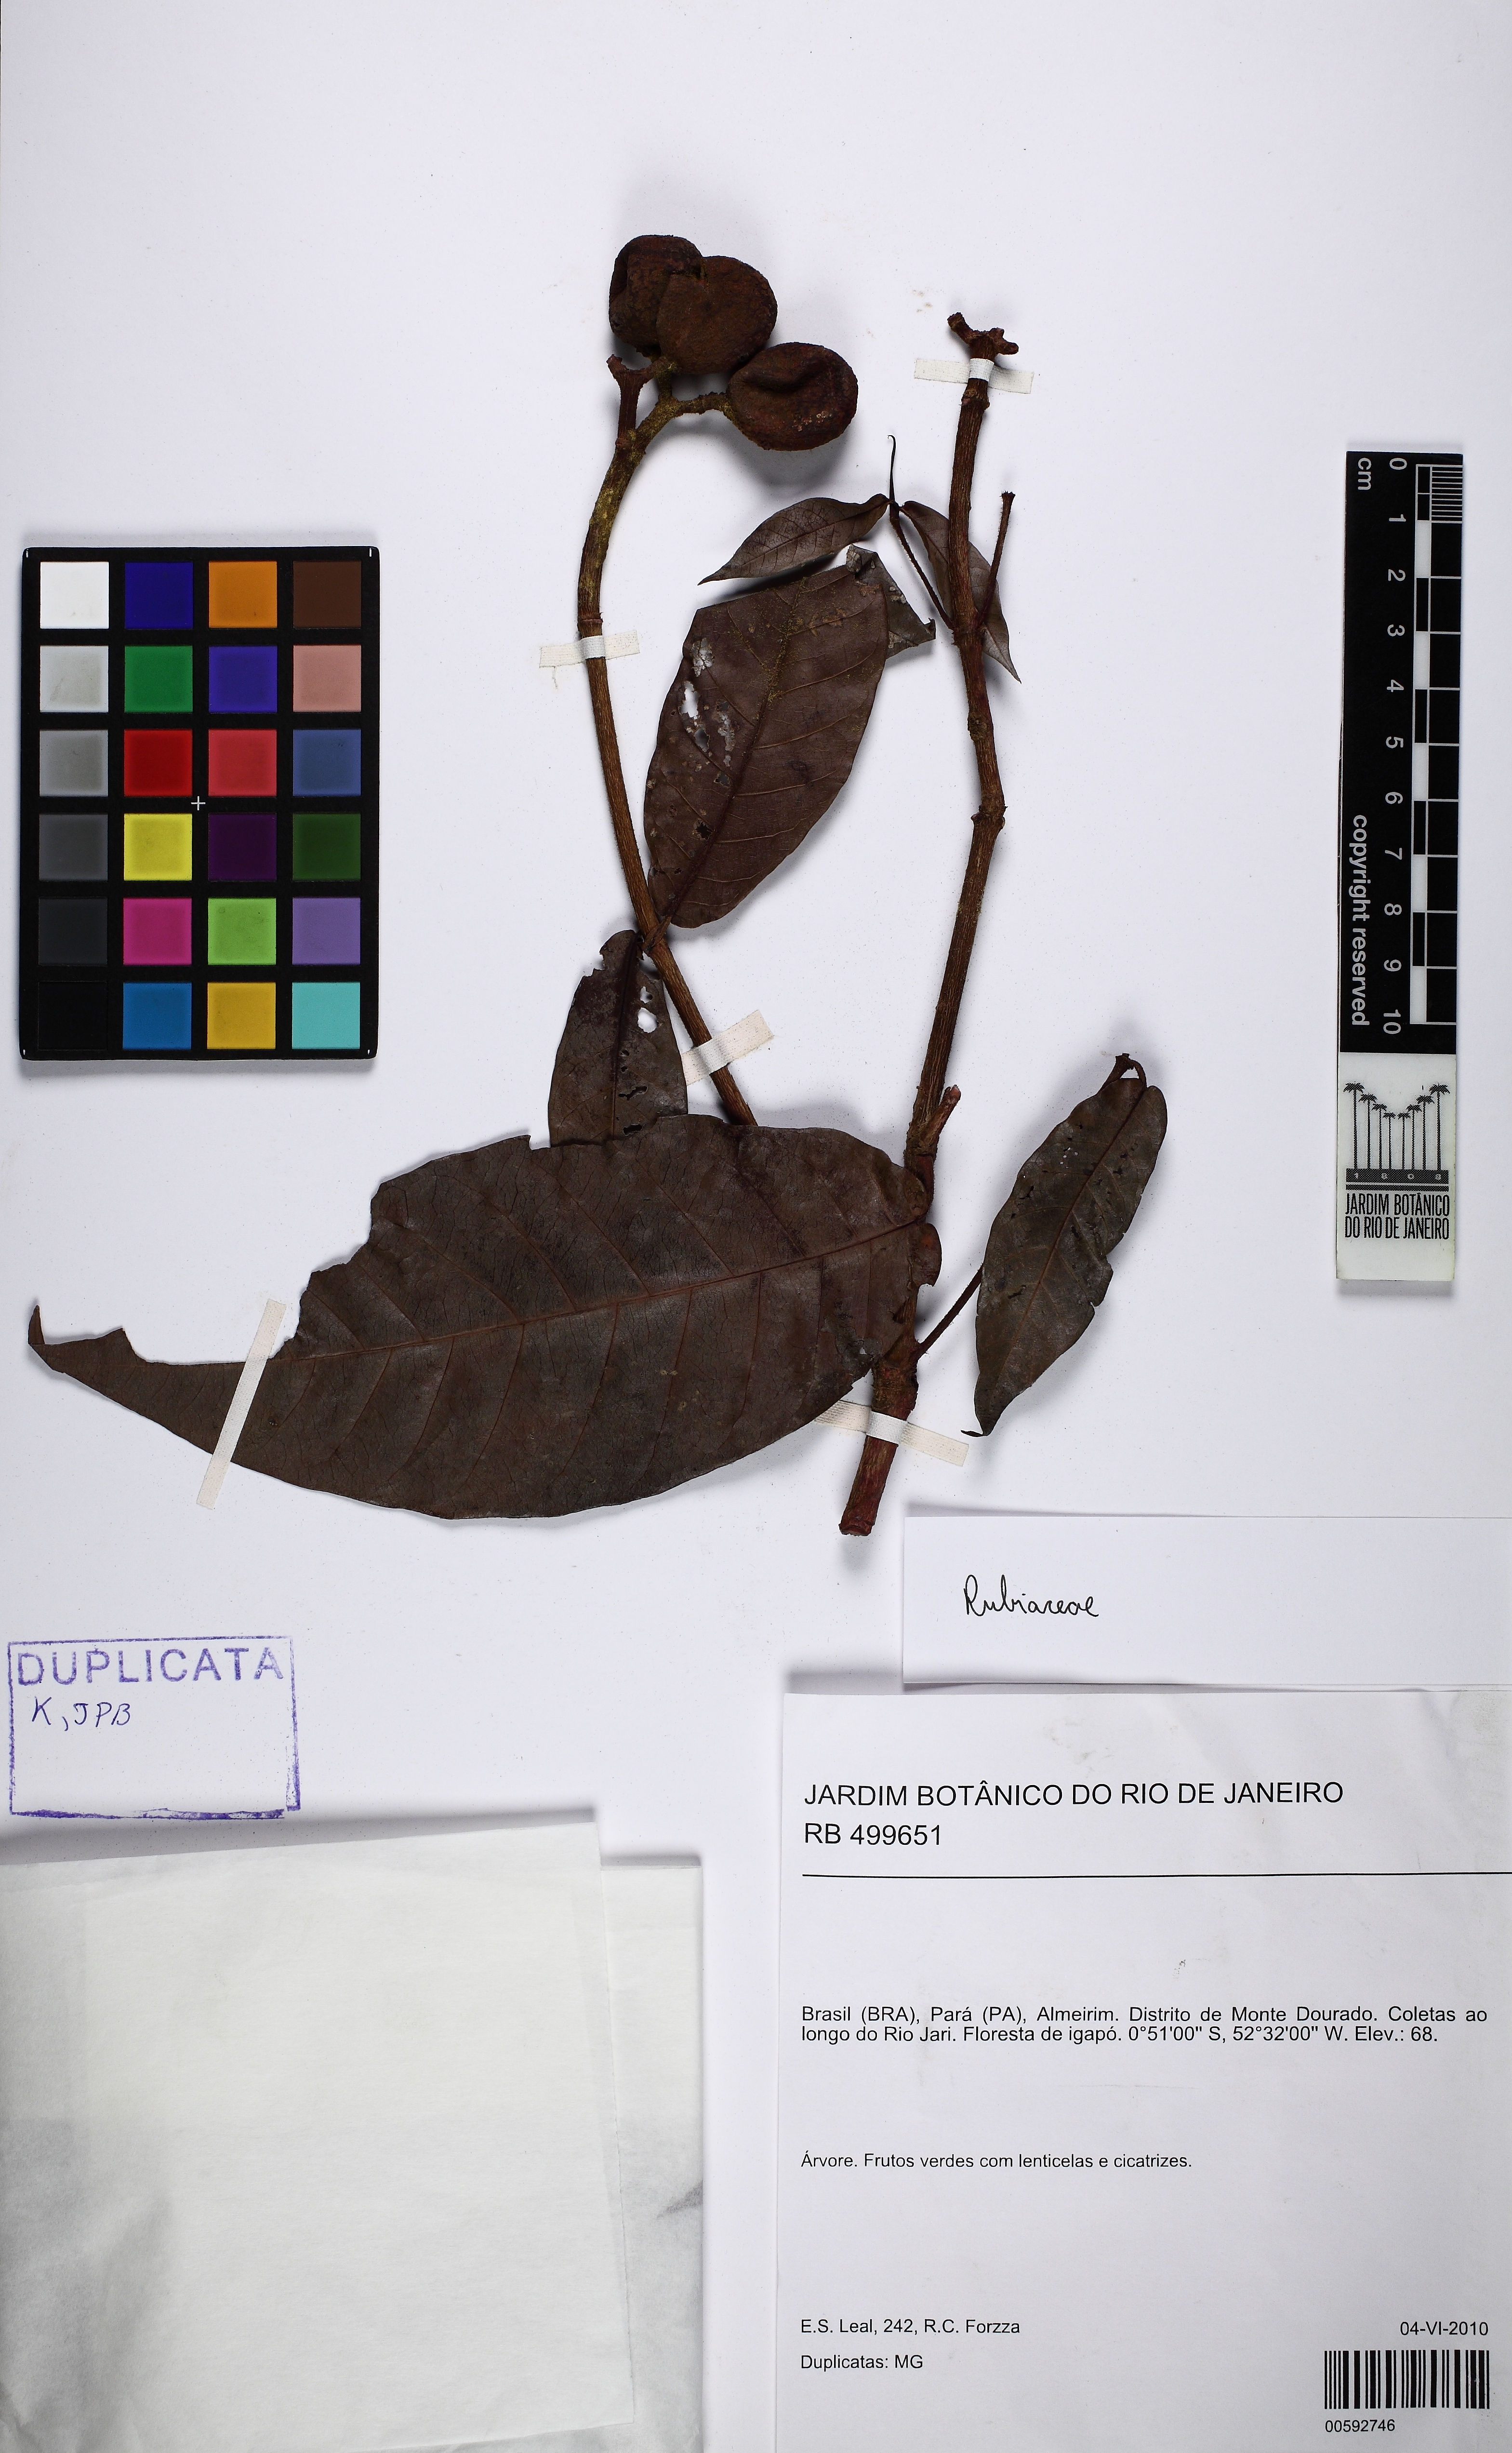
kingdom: Plantae
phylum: Tracheophyta
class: Magnoliopsida
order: Gentianales
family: Rubiaceae
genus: Simira
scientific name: Simira
